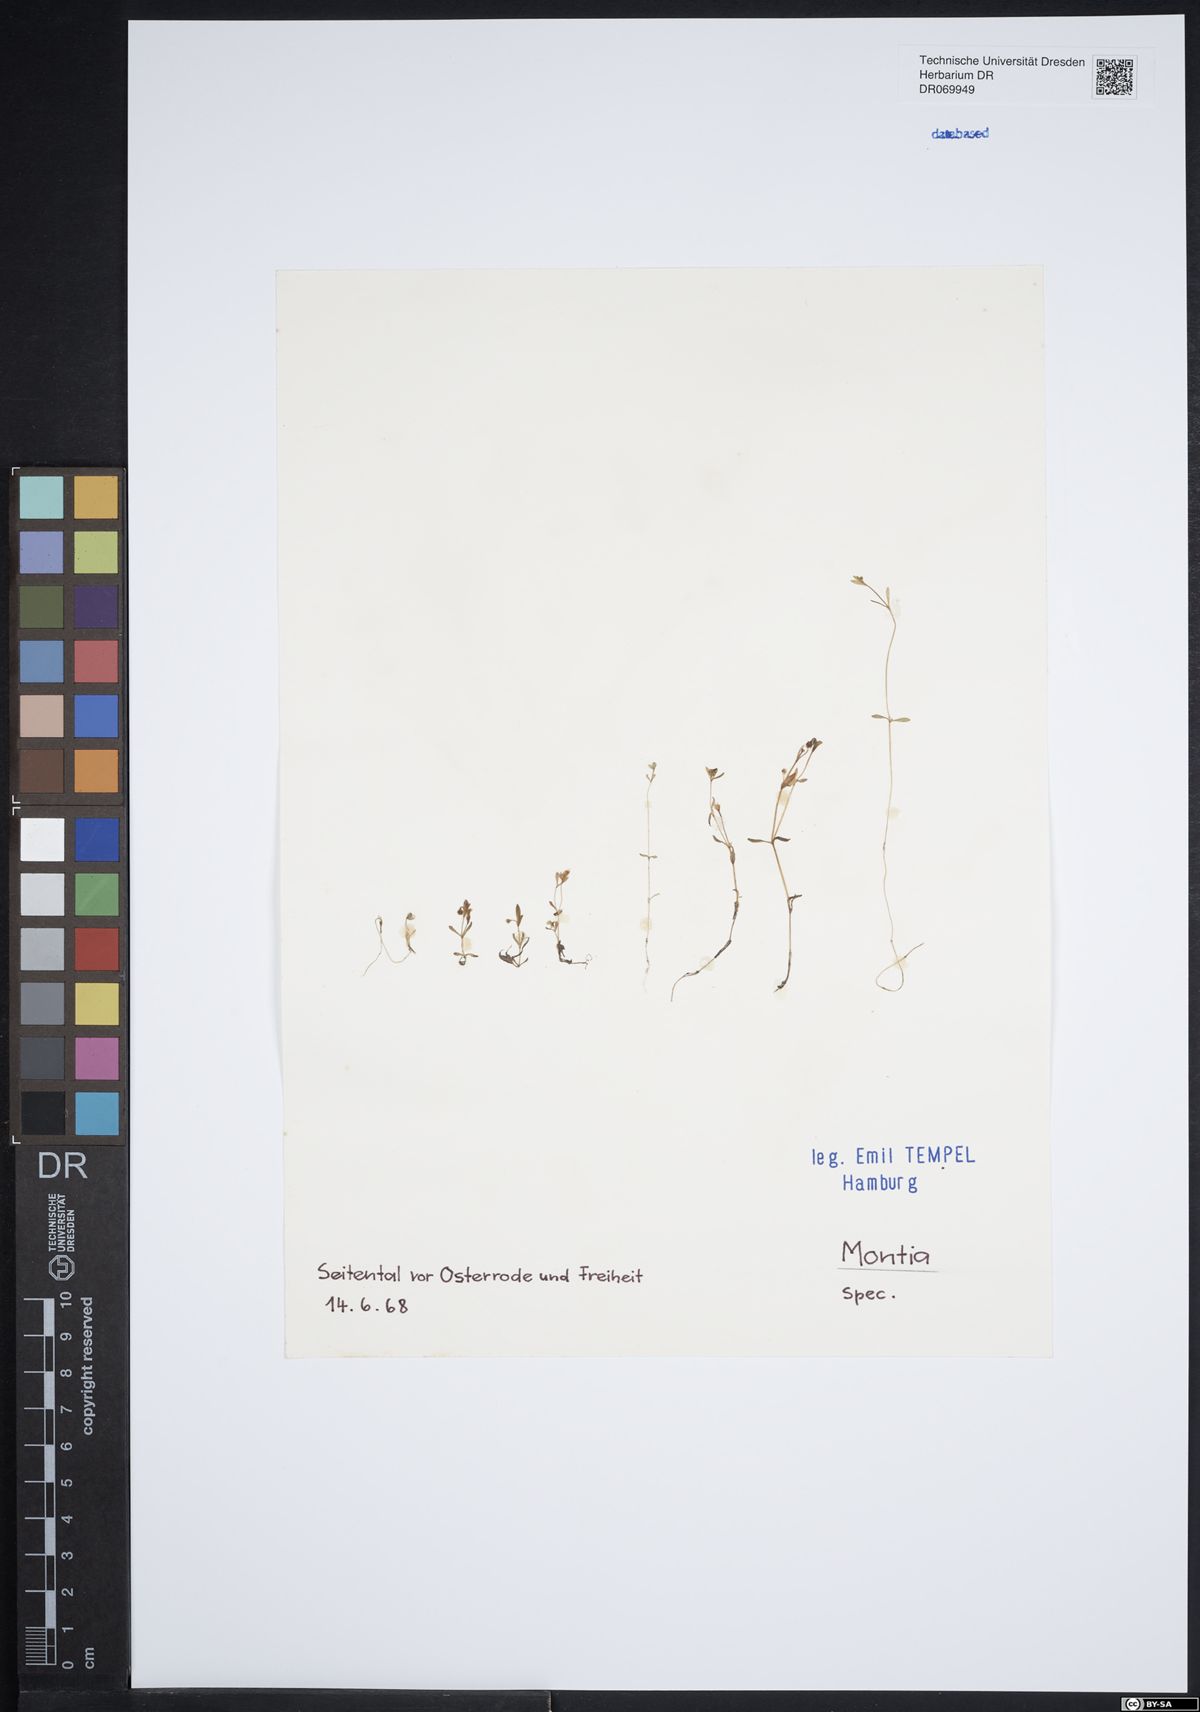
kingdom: Plantae
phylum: Tracheophyta
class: Magnoliopsida
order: Caryophyllales
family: Montiaceae
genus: Montia
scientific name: Montia
